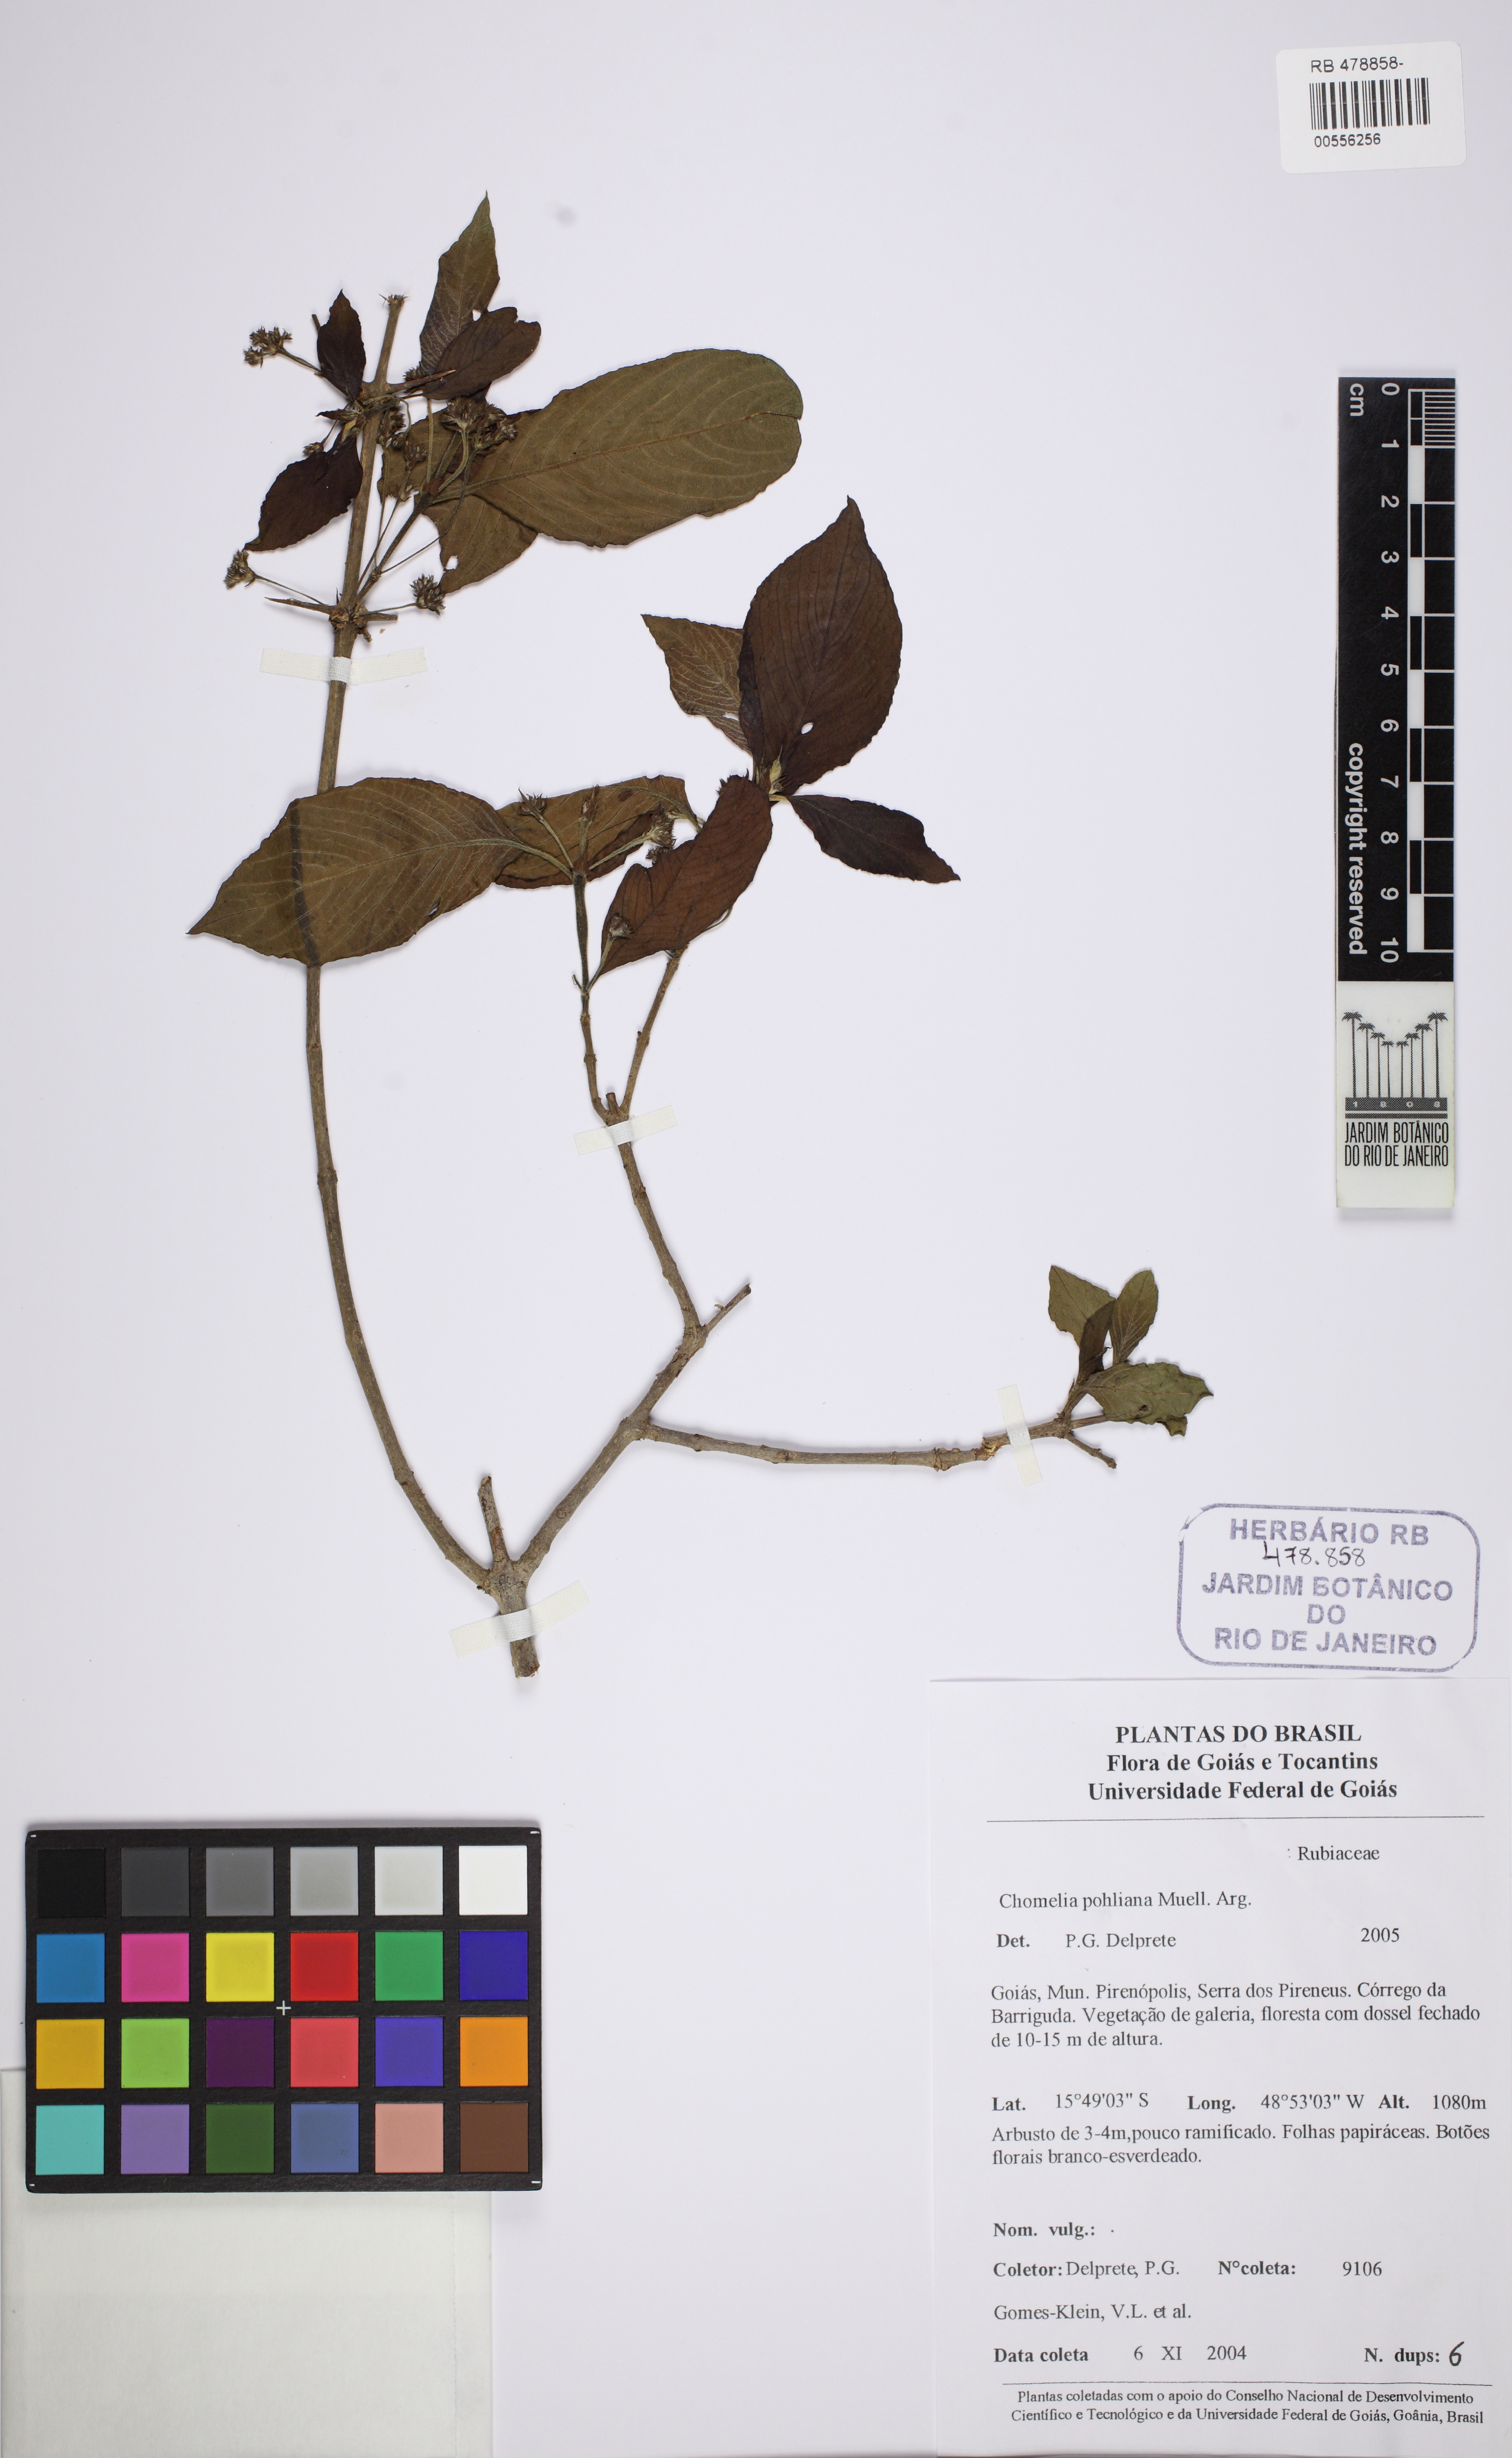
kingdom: Plantae
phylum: Tracheophyta
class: Magnoliopsida
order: Gentianales
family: Rubiaceae
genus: Chomelia
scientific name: Chomelia pohliana
